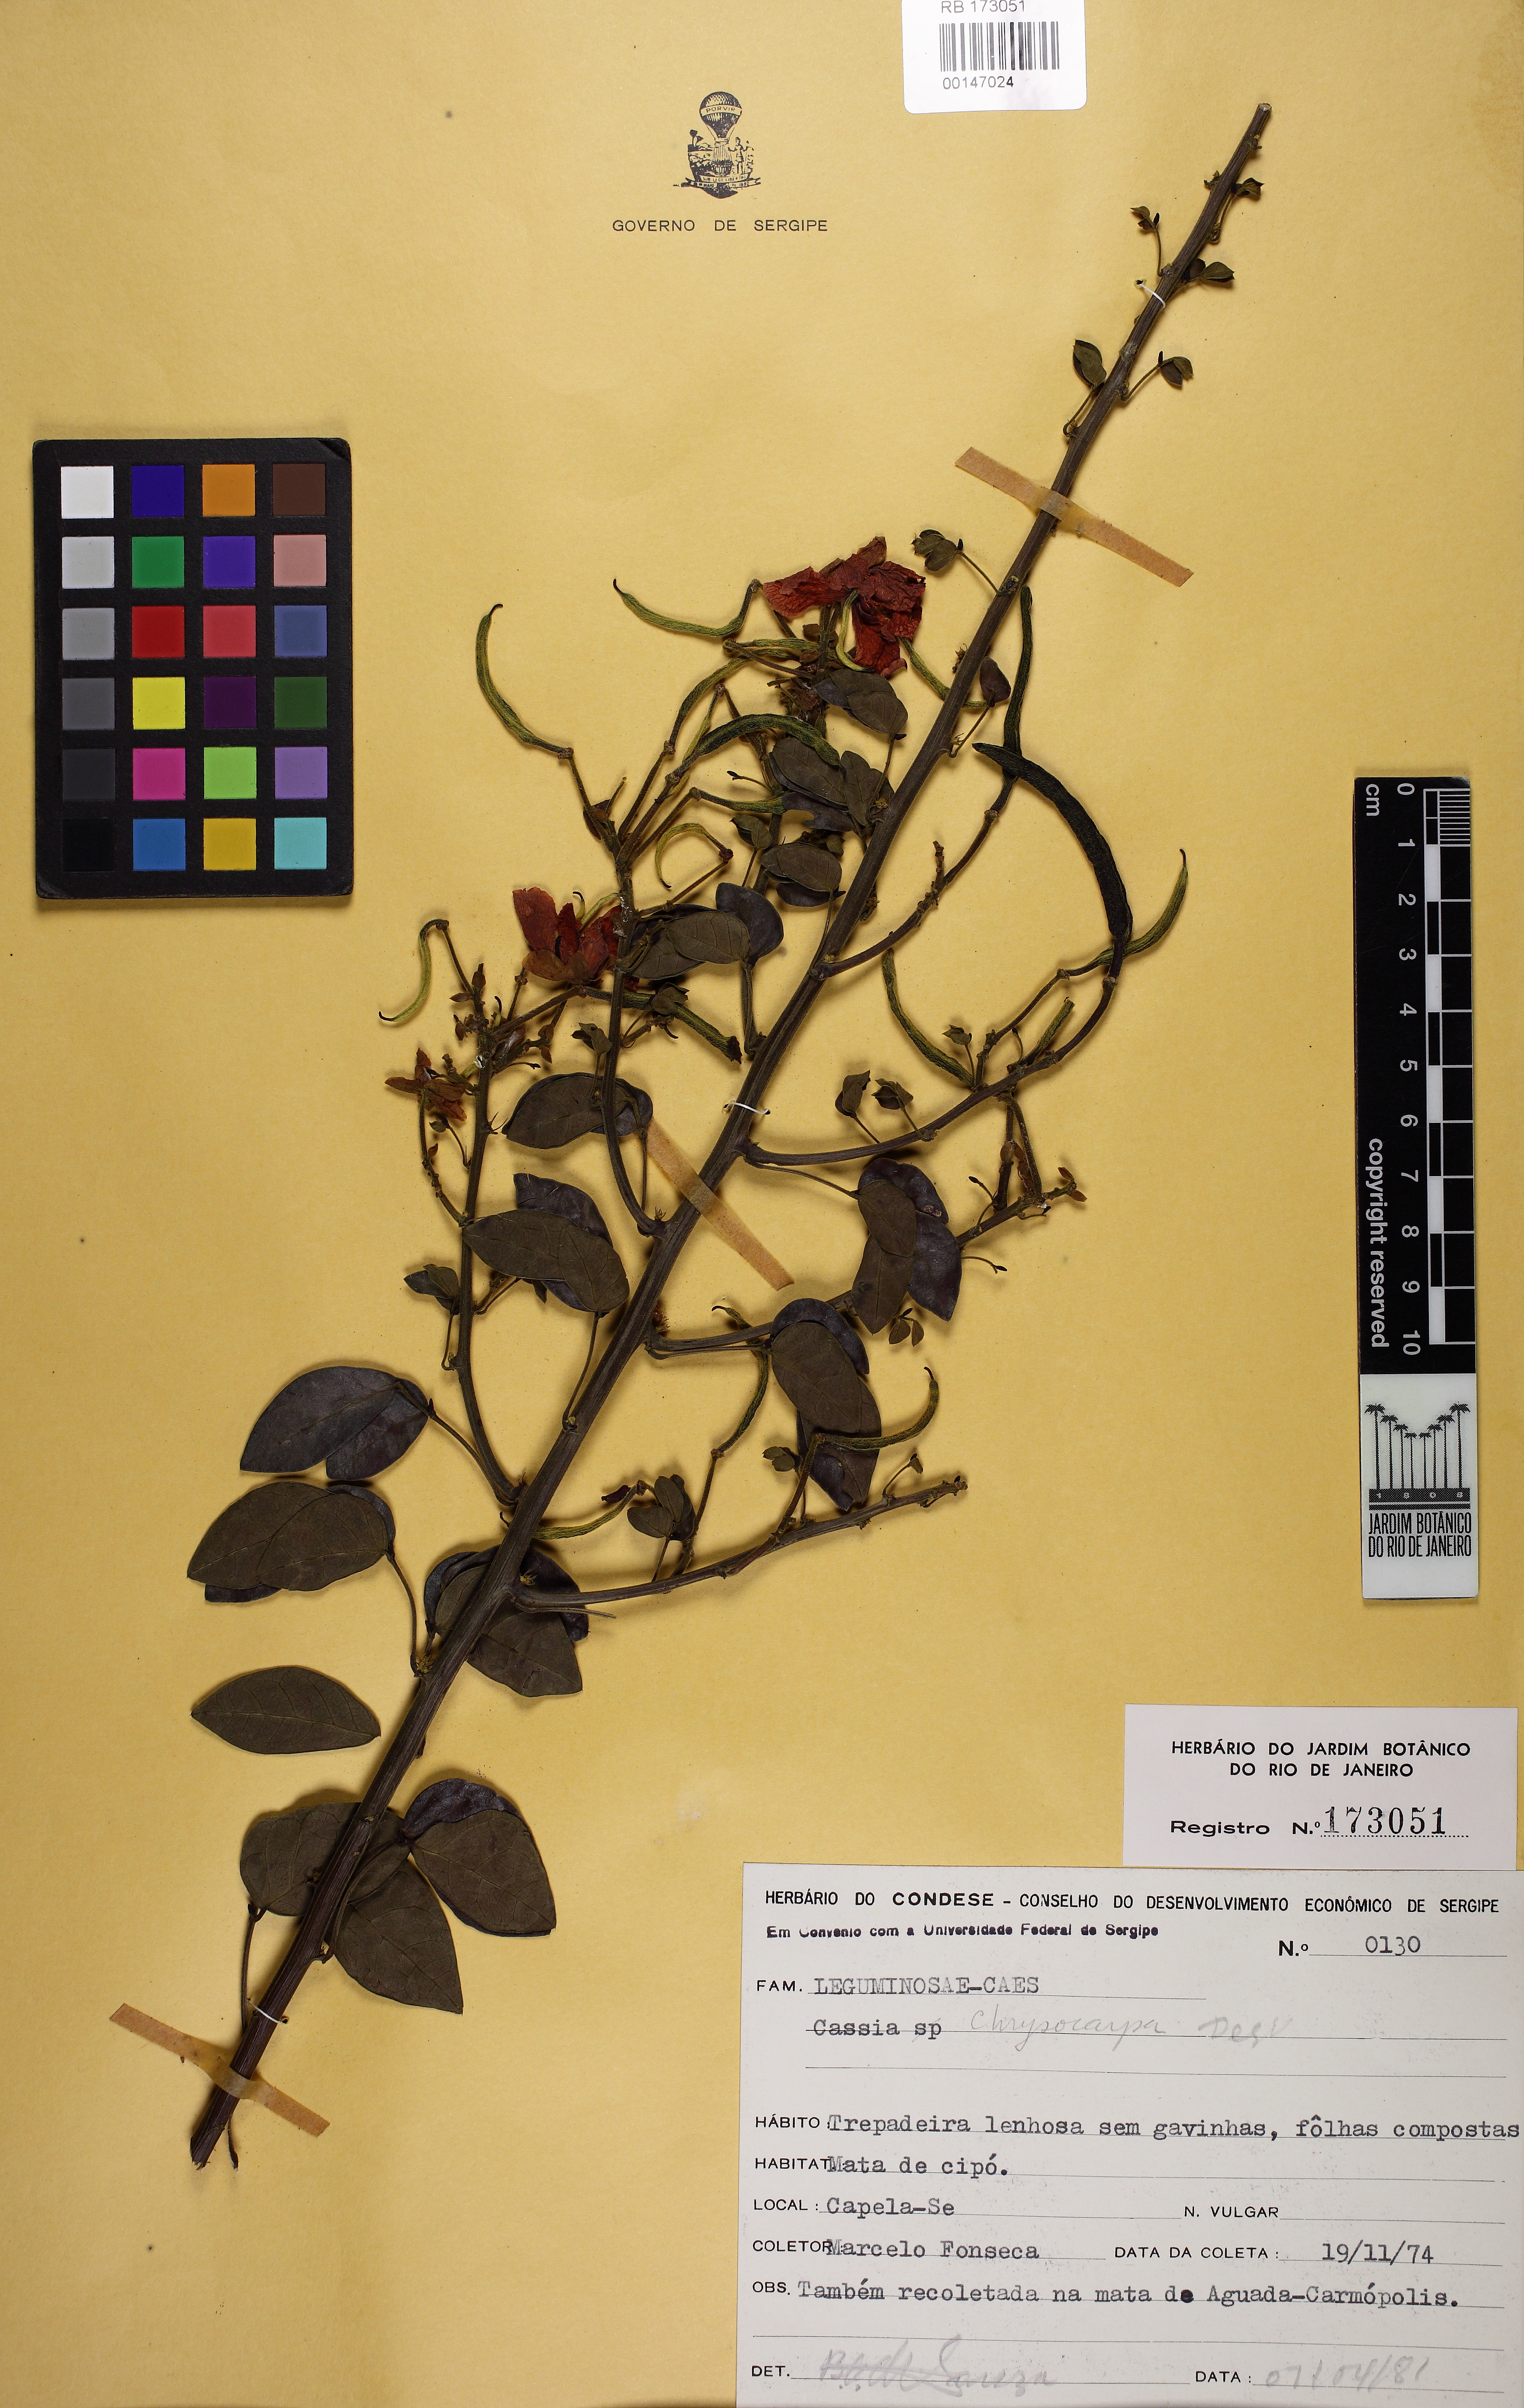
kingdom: Plantae
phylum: Tracheophyta
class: Magnoliopsida
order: Fabales
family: Fabaceae
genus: Senna
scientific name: Senna chrysocarpa
